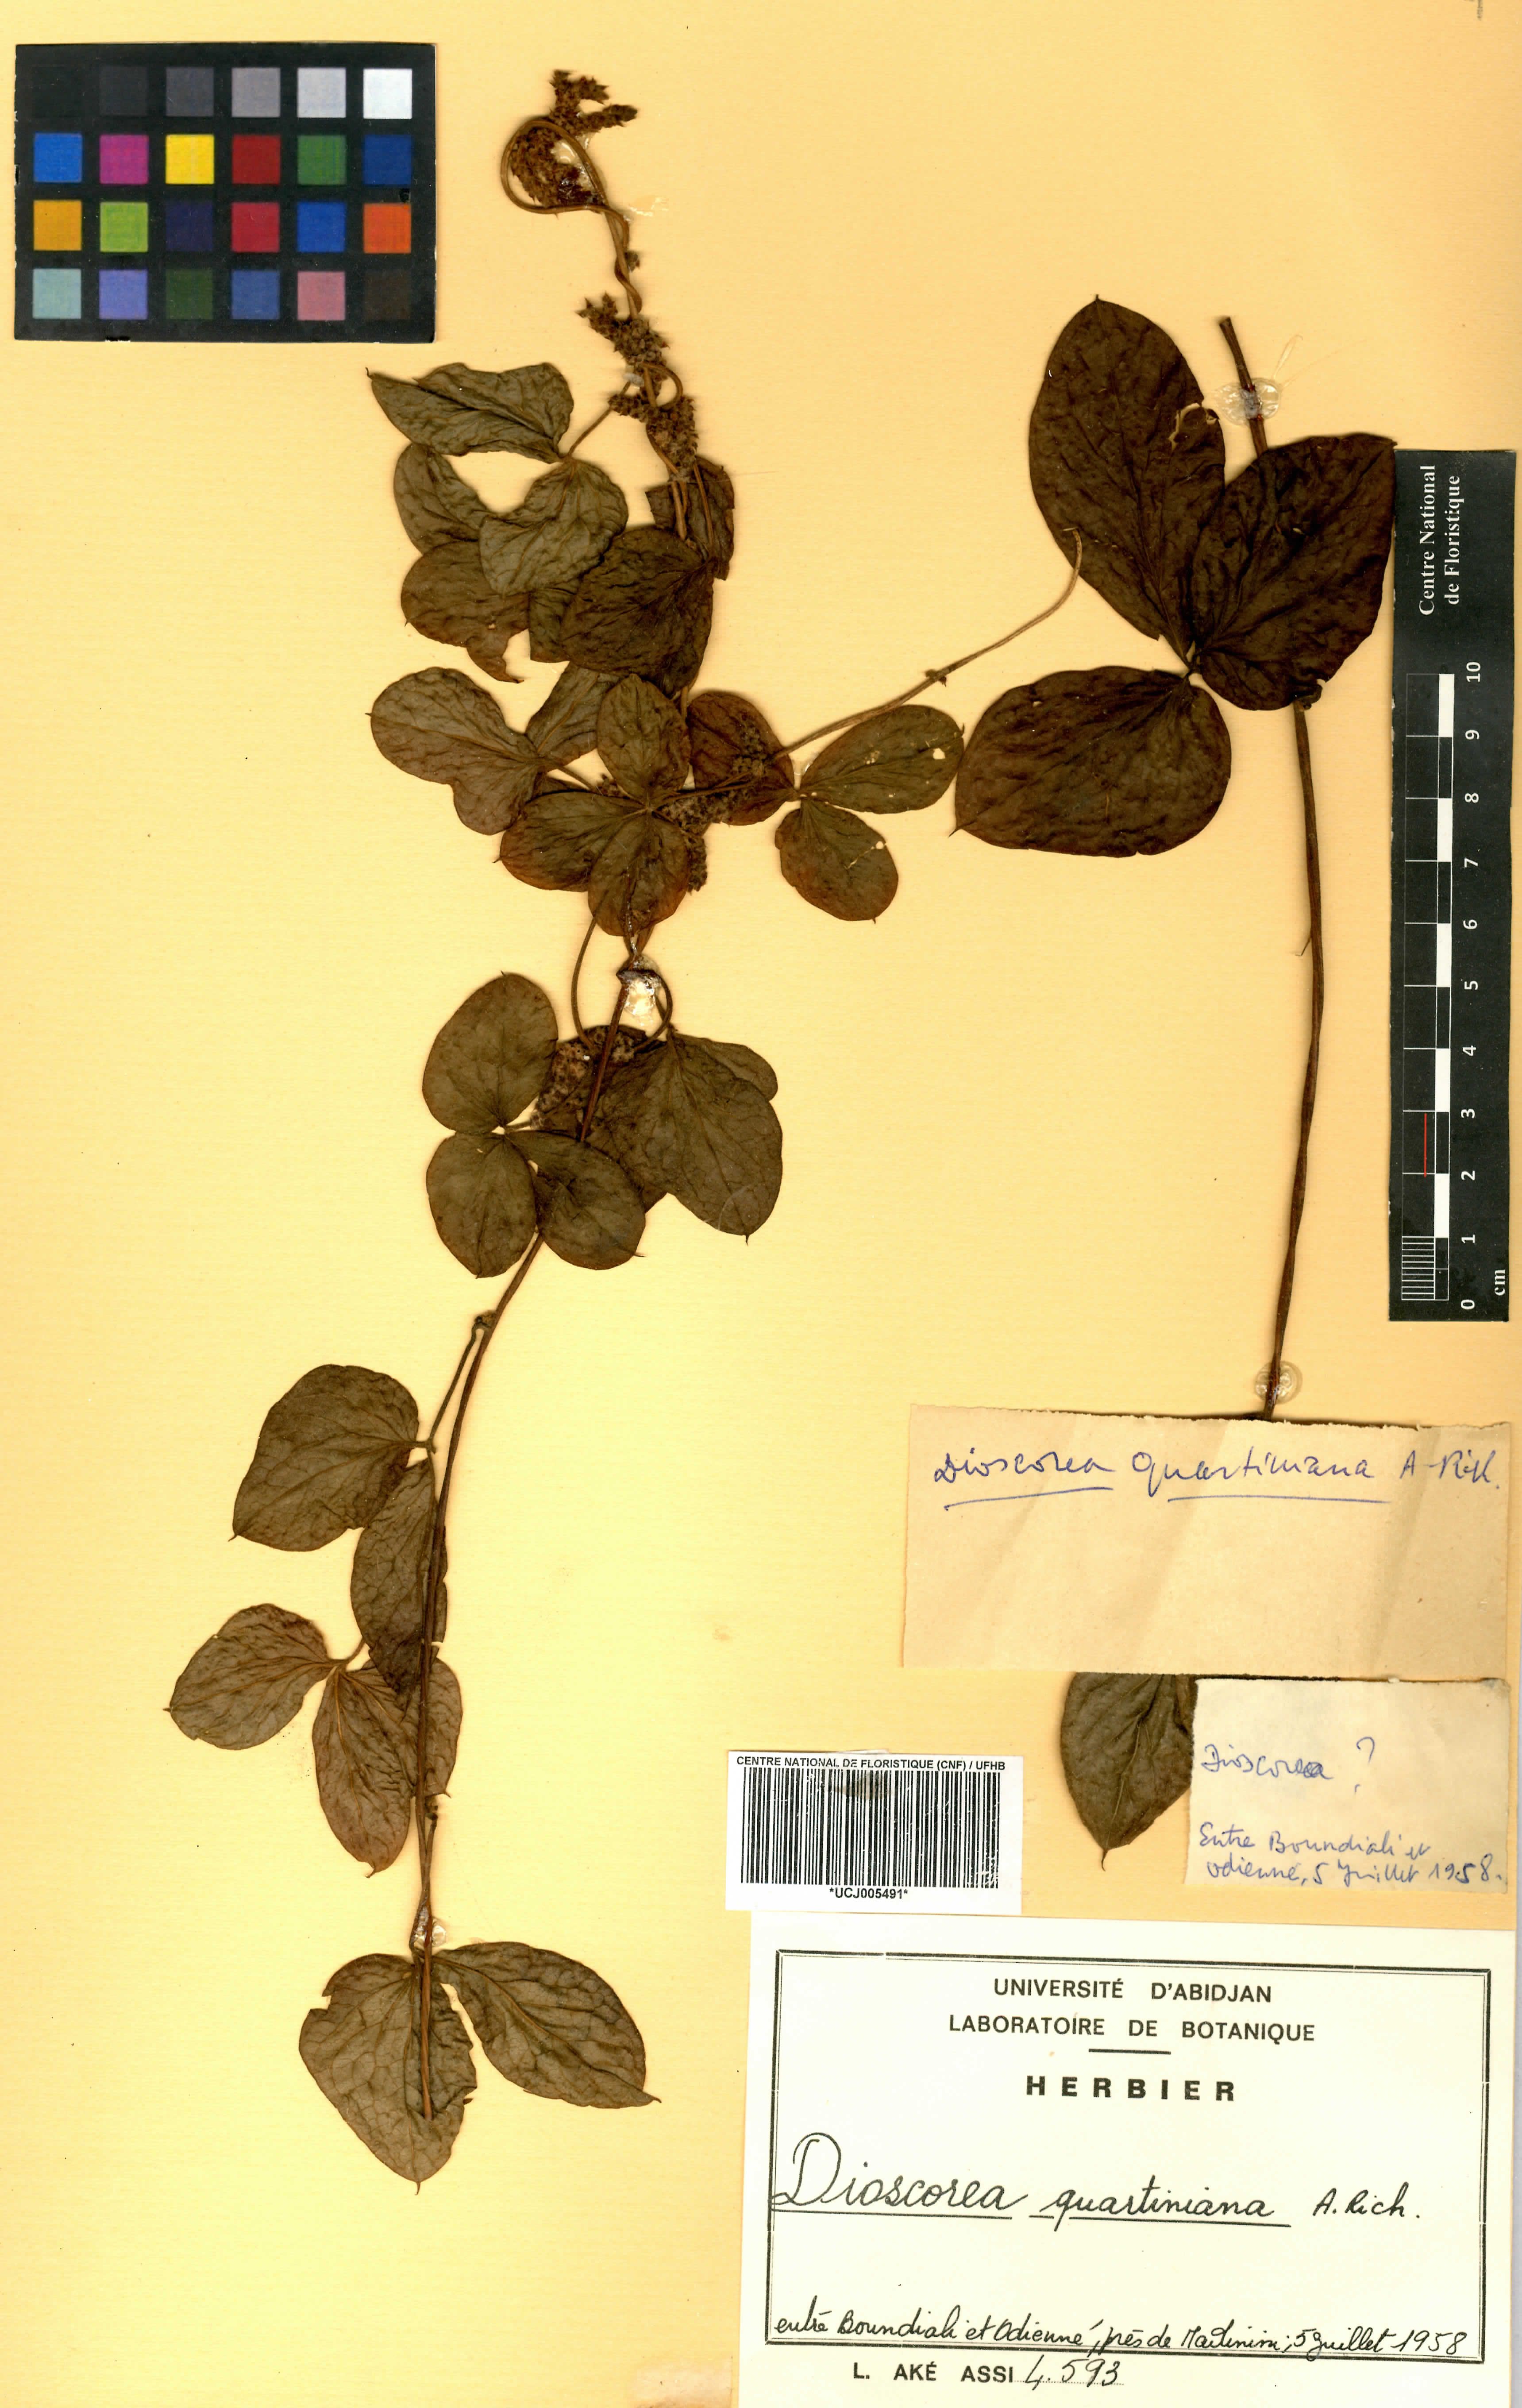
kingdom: Plantae
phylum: Tracheophyta
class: Liliopsida
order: Dioscoreales
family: Dioscoreaceae
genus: Dioscorea
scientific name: Dioscorea quartiniana
